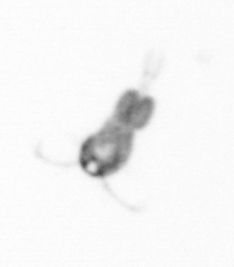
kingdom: Animalia
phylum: Arthropoda
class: Copepoda
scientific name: Copepoda
